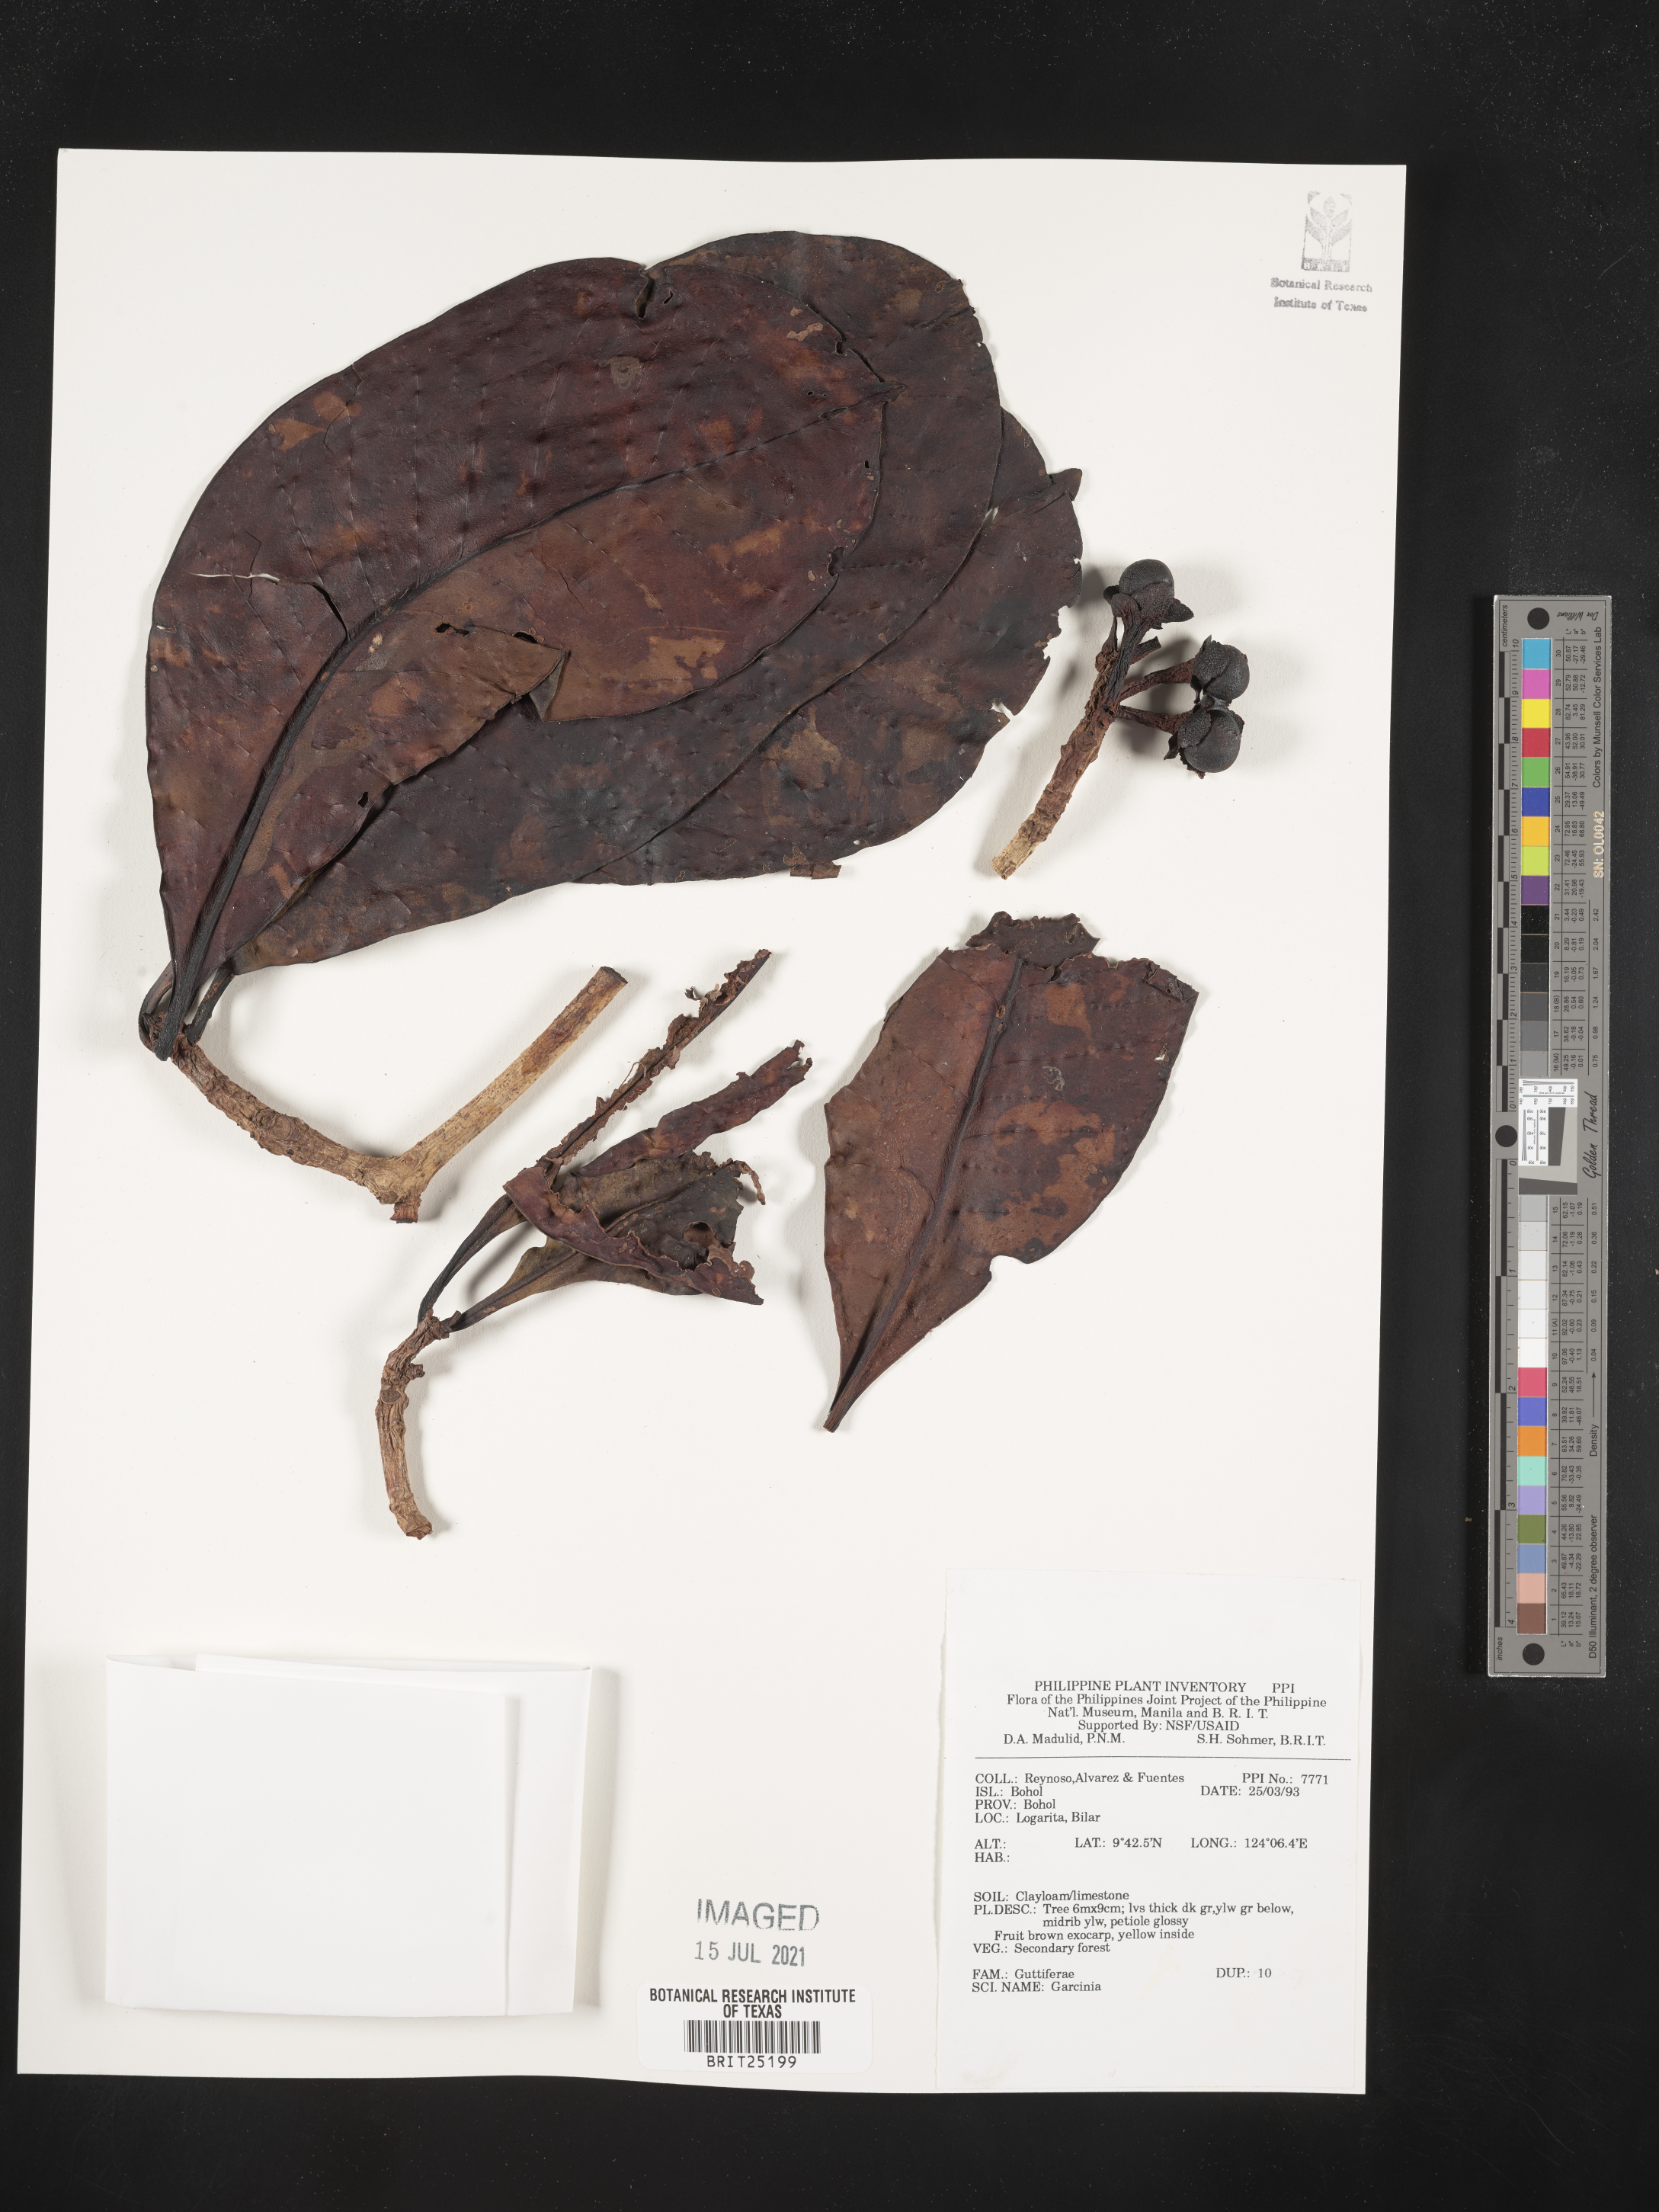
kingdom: Plantae
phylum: Tracheophyta
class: Magnoliopsida
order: Malpighiales
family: Clusiaceae
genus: Garcinia
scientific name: Garcinia
